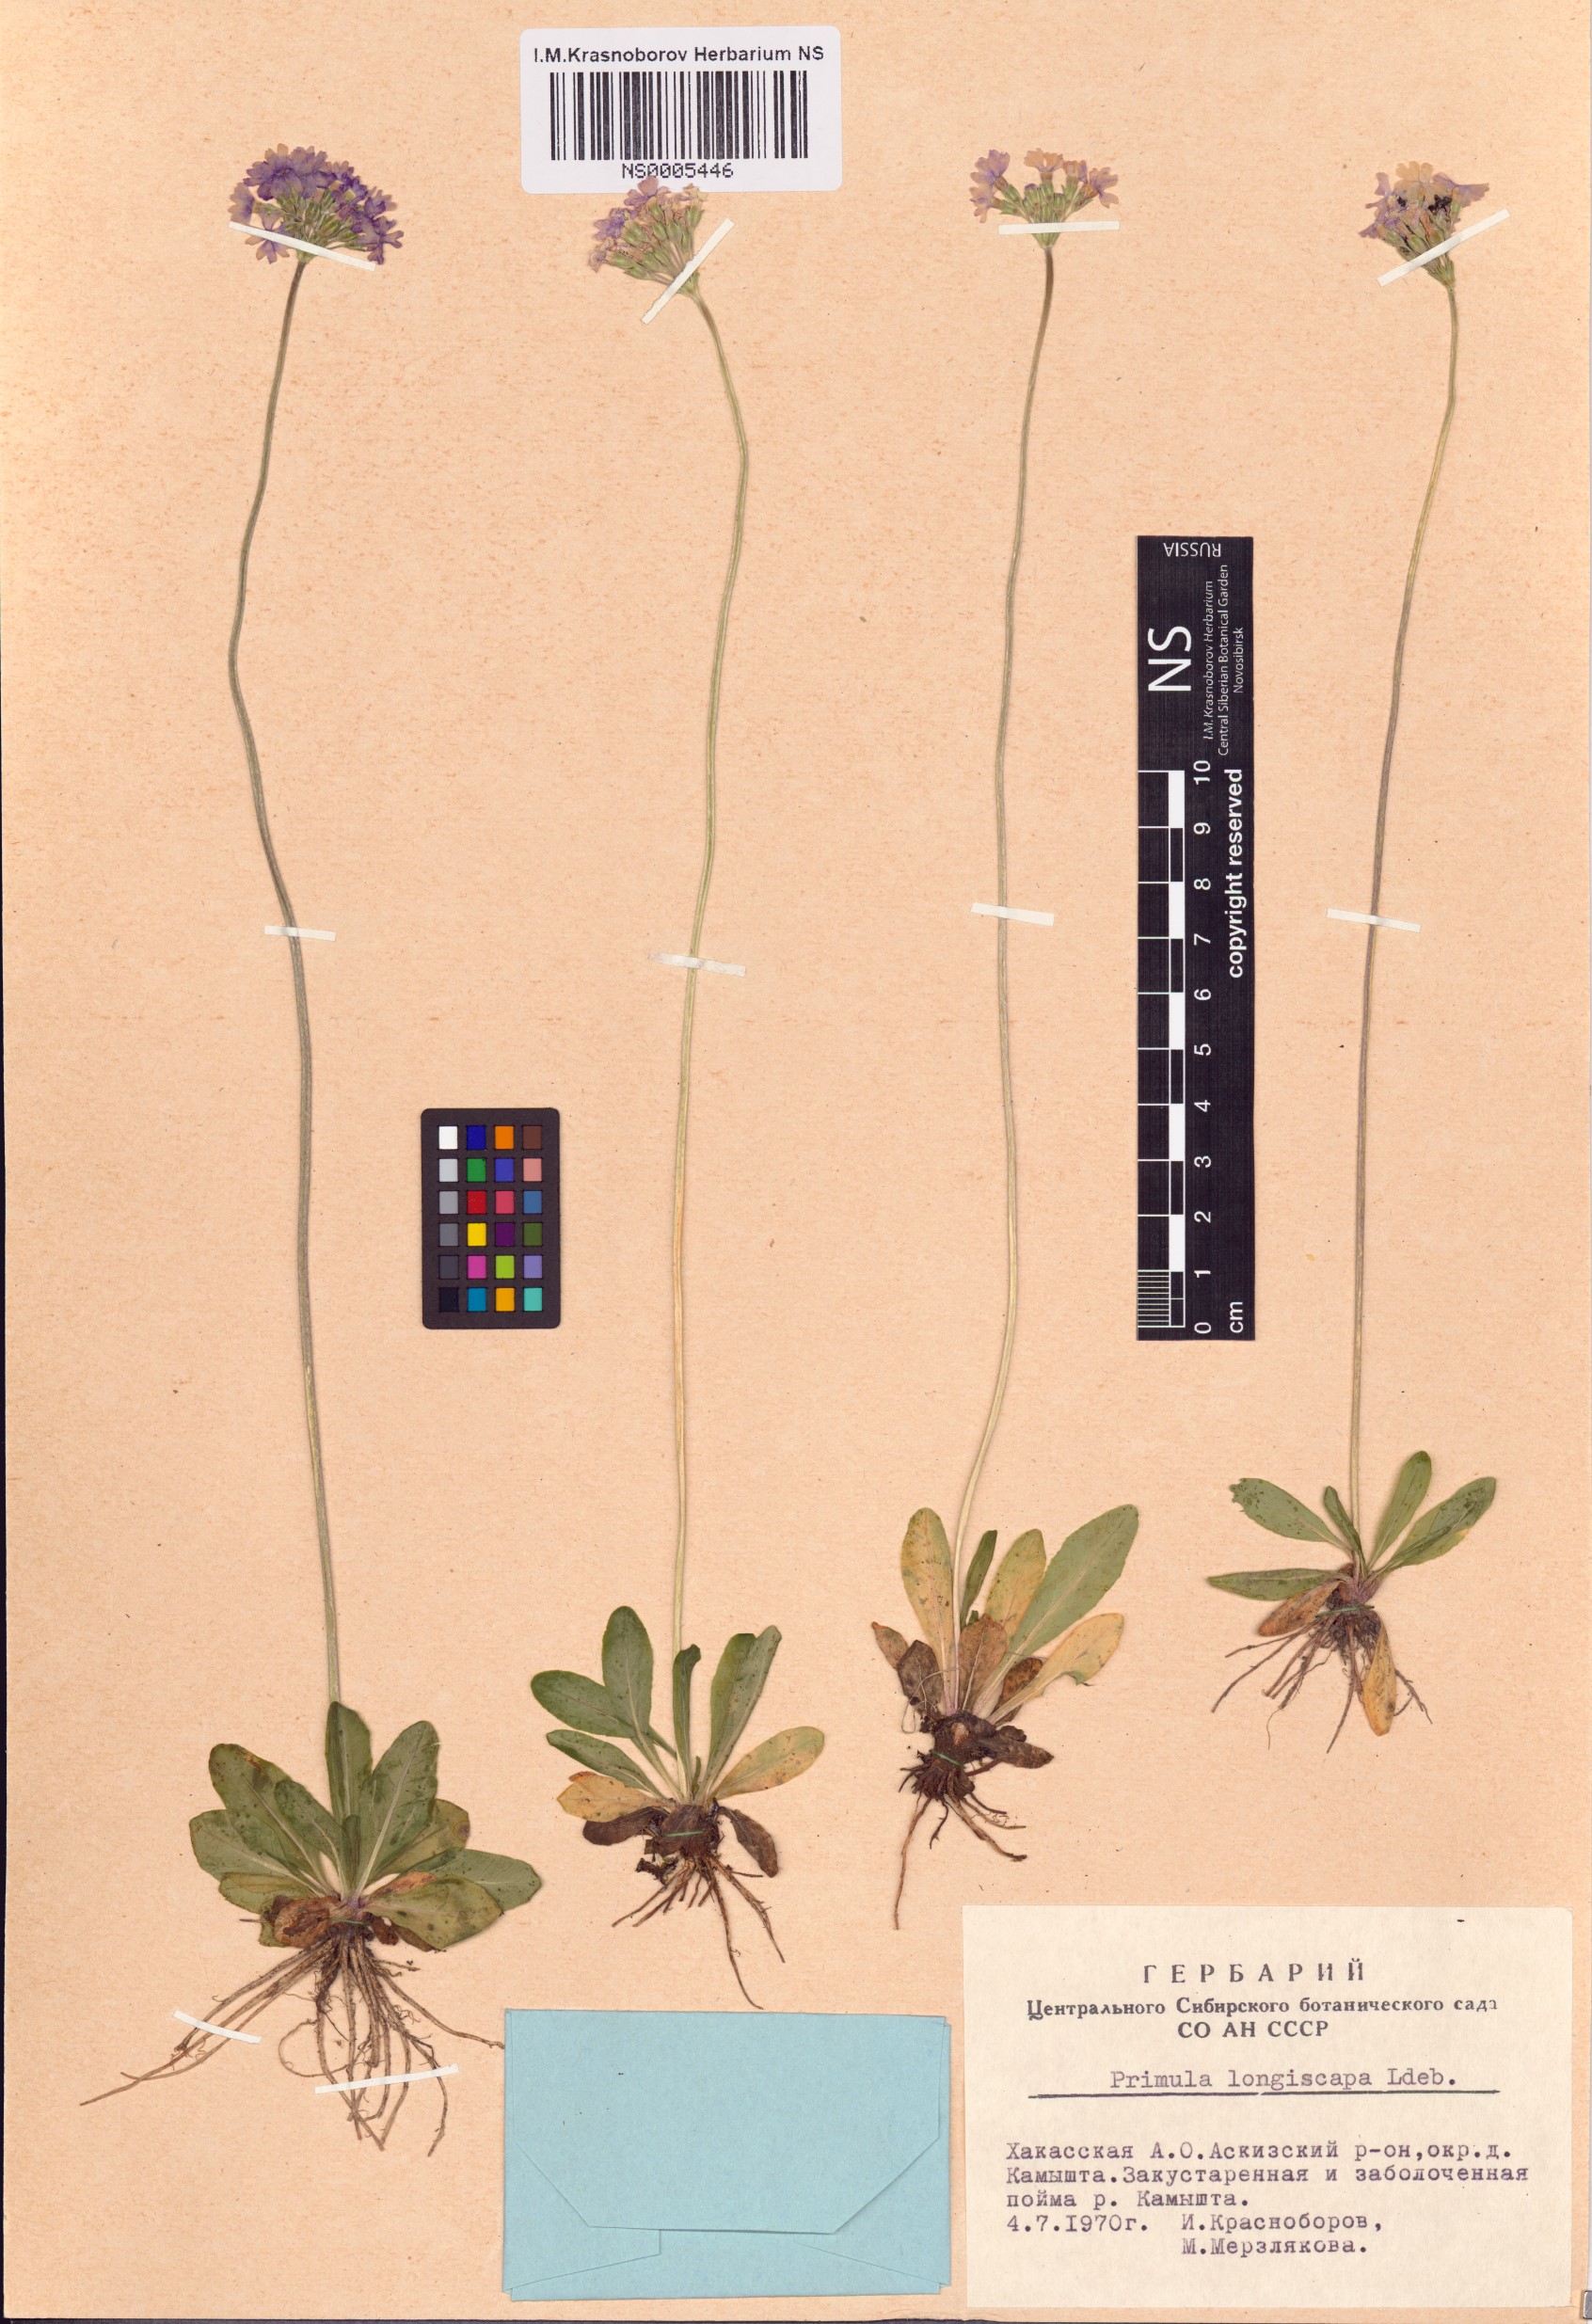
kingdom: Plantae
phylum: Tracheophyta
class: Magnoliopsida
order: Ericales
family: Primulaceae
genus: Primula
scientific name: Primula longiscapa
